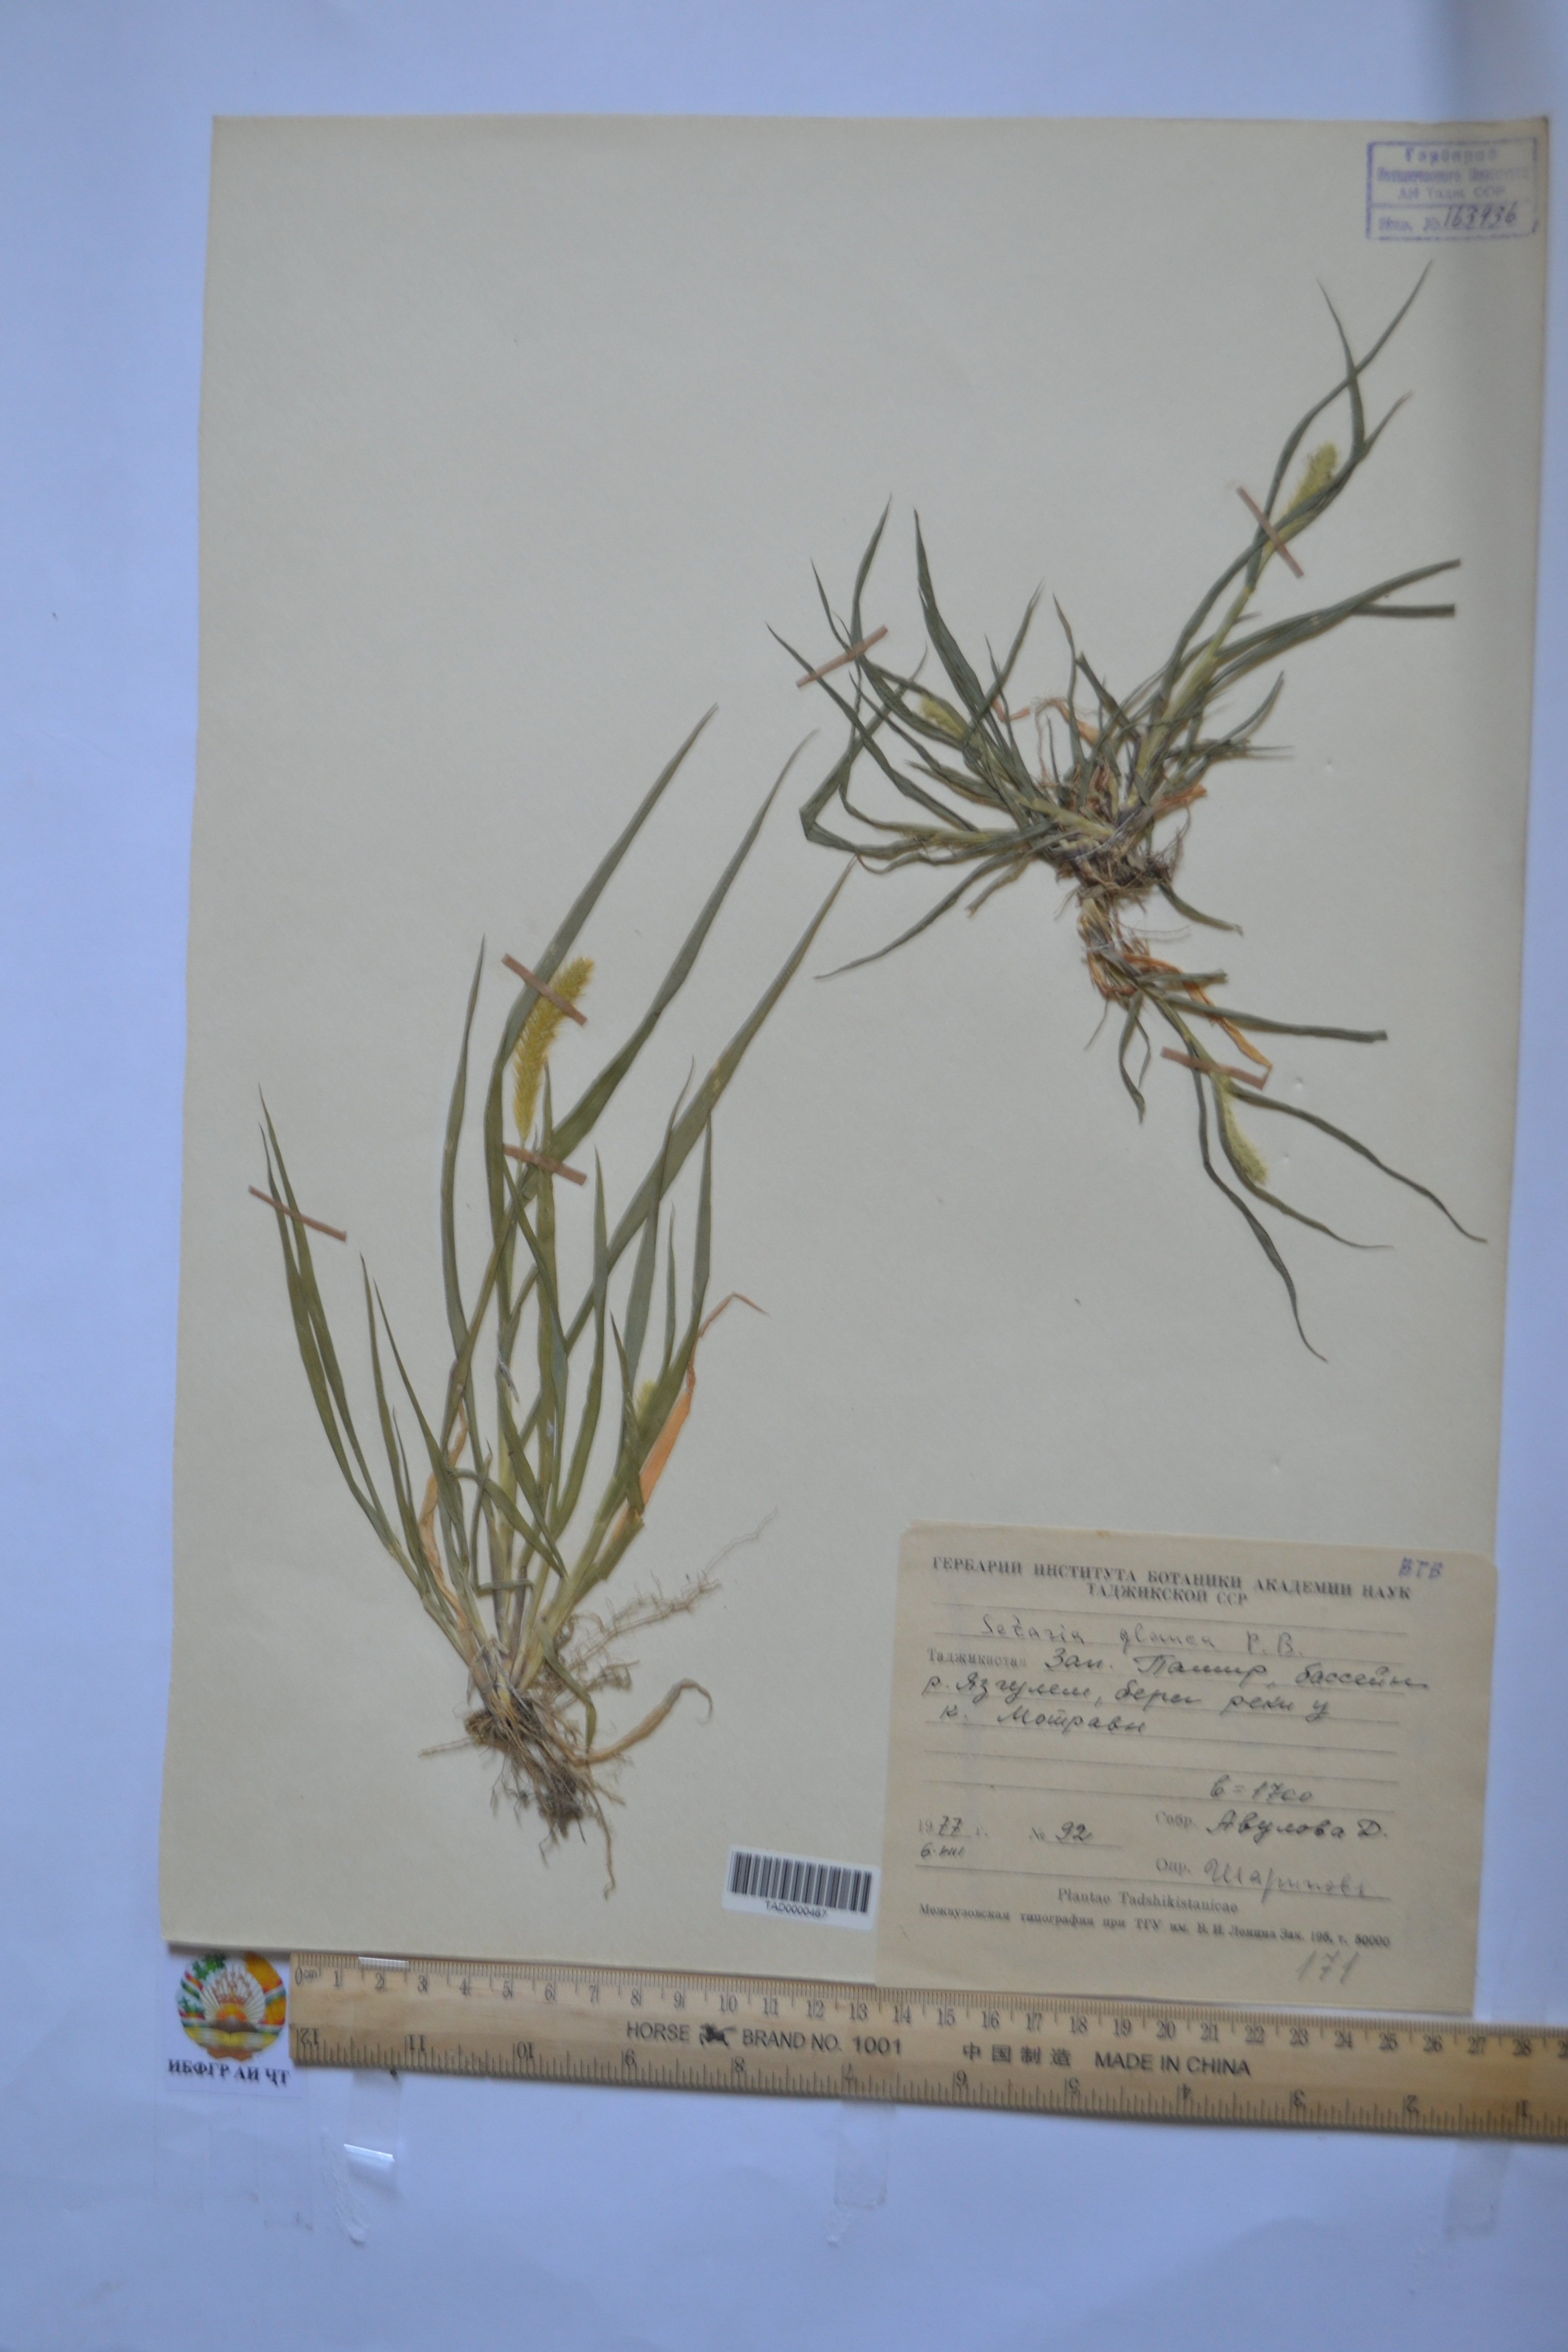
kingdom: Plantae
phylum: Tracheophyta
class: Liliopsida
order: Poales
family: Poaceae
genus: Cenchrus
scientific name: Cenchrus americanus
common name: Pearl millet
